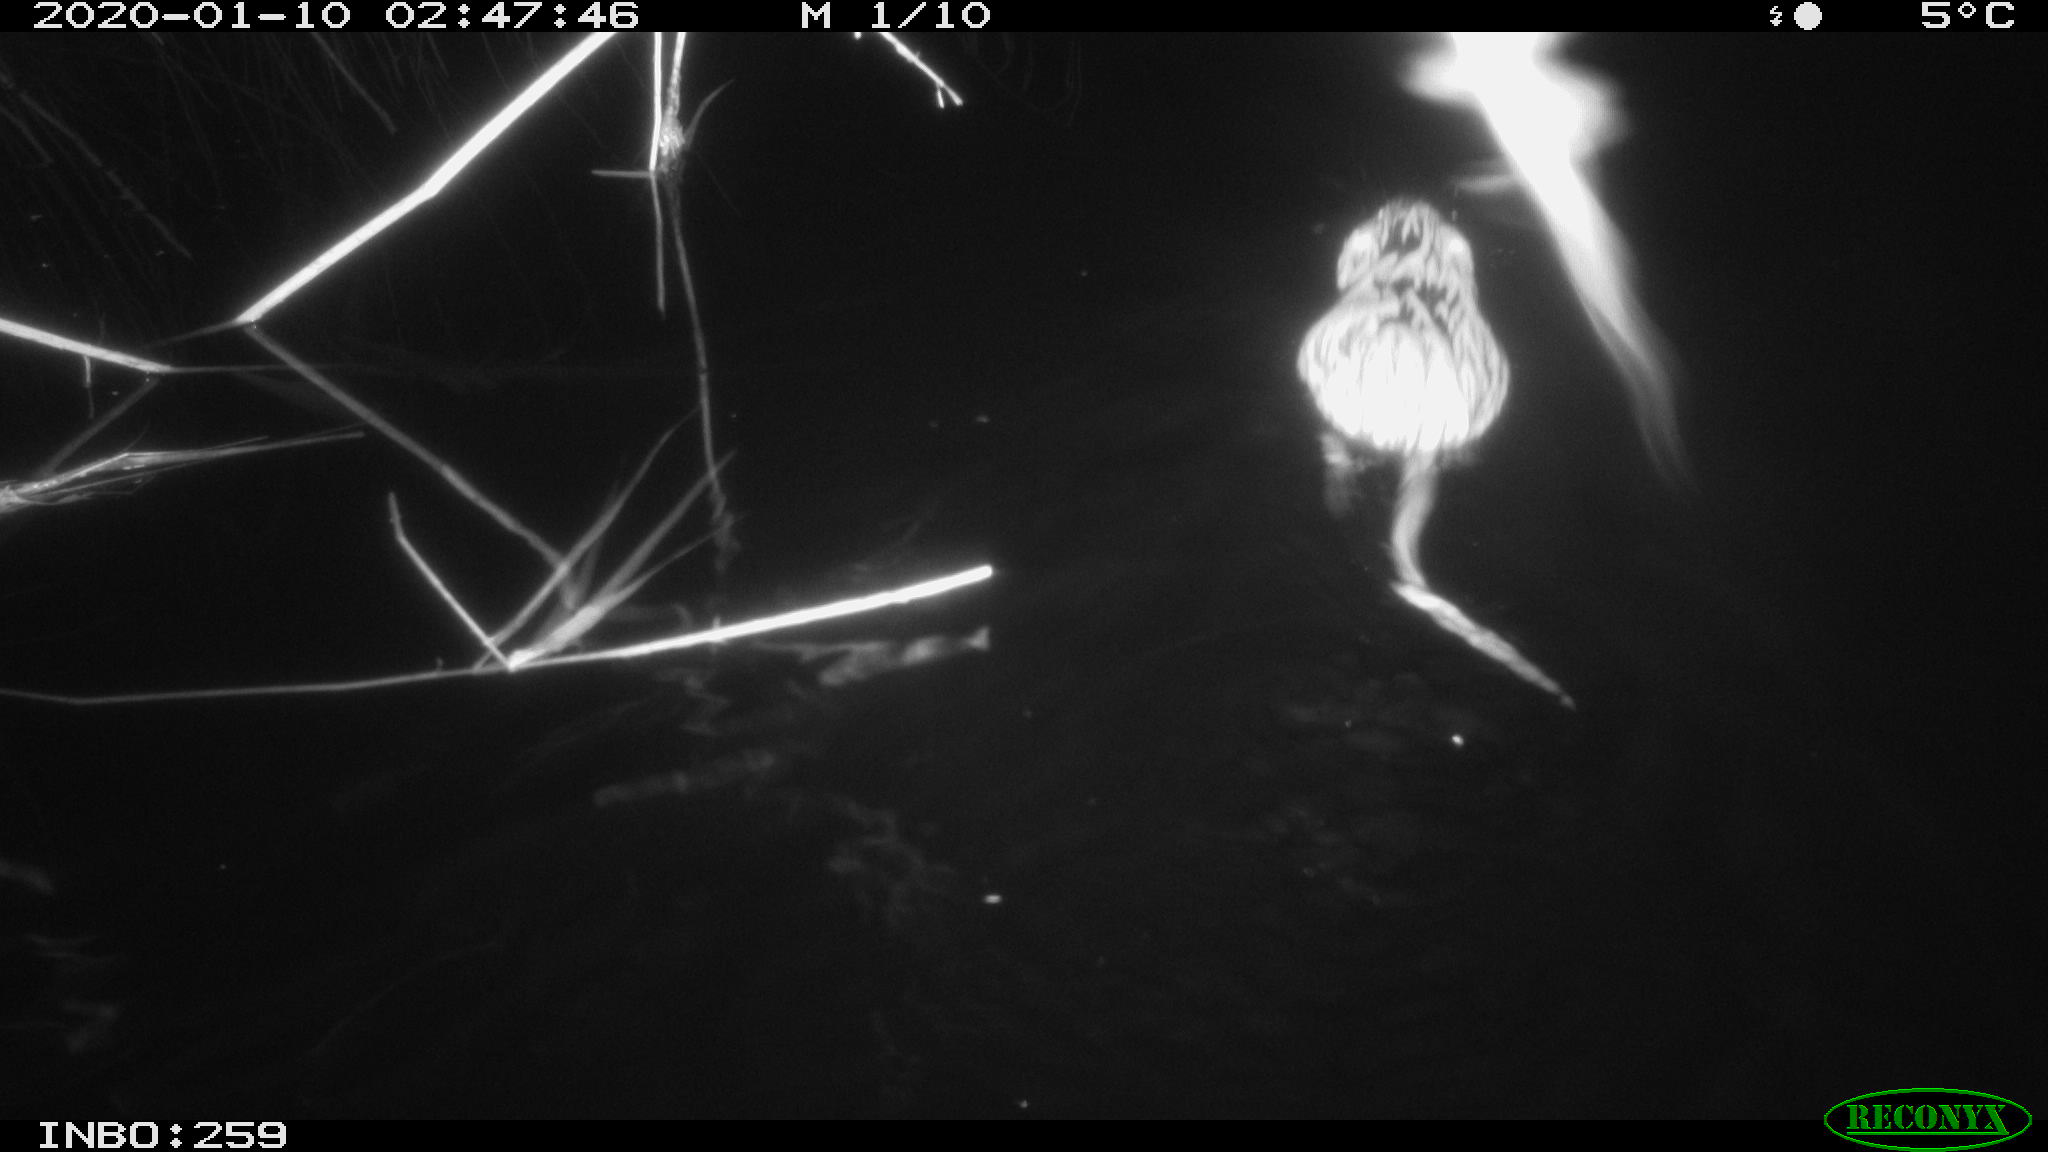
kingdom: Animalia
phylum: Chordata
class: Mammalia
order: Rodentia
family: Cricetidae
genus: Ondatra
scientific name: Ondatra zibethicus
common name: Muskrat
